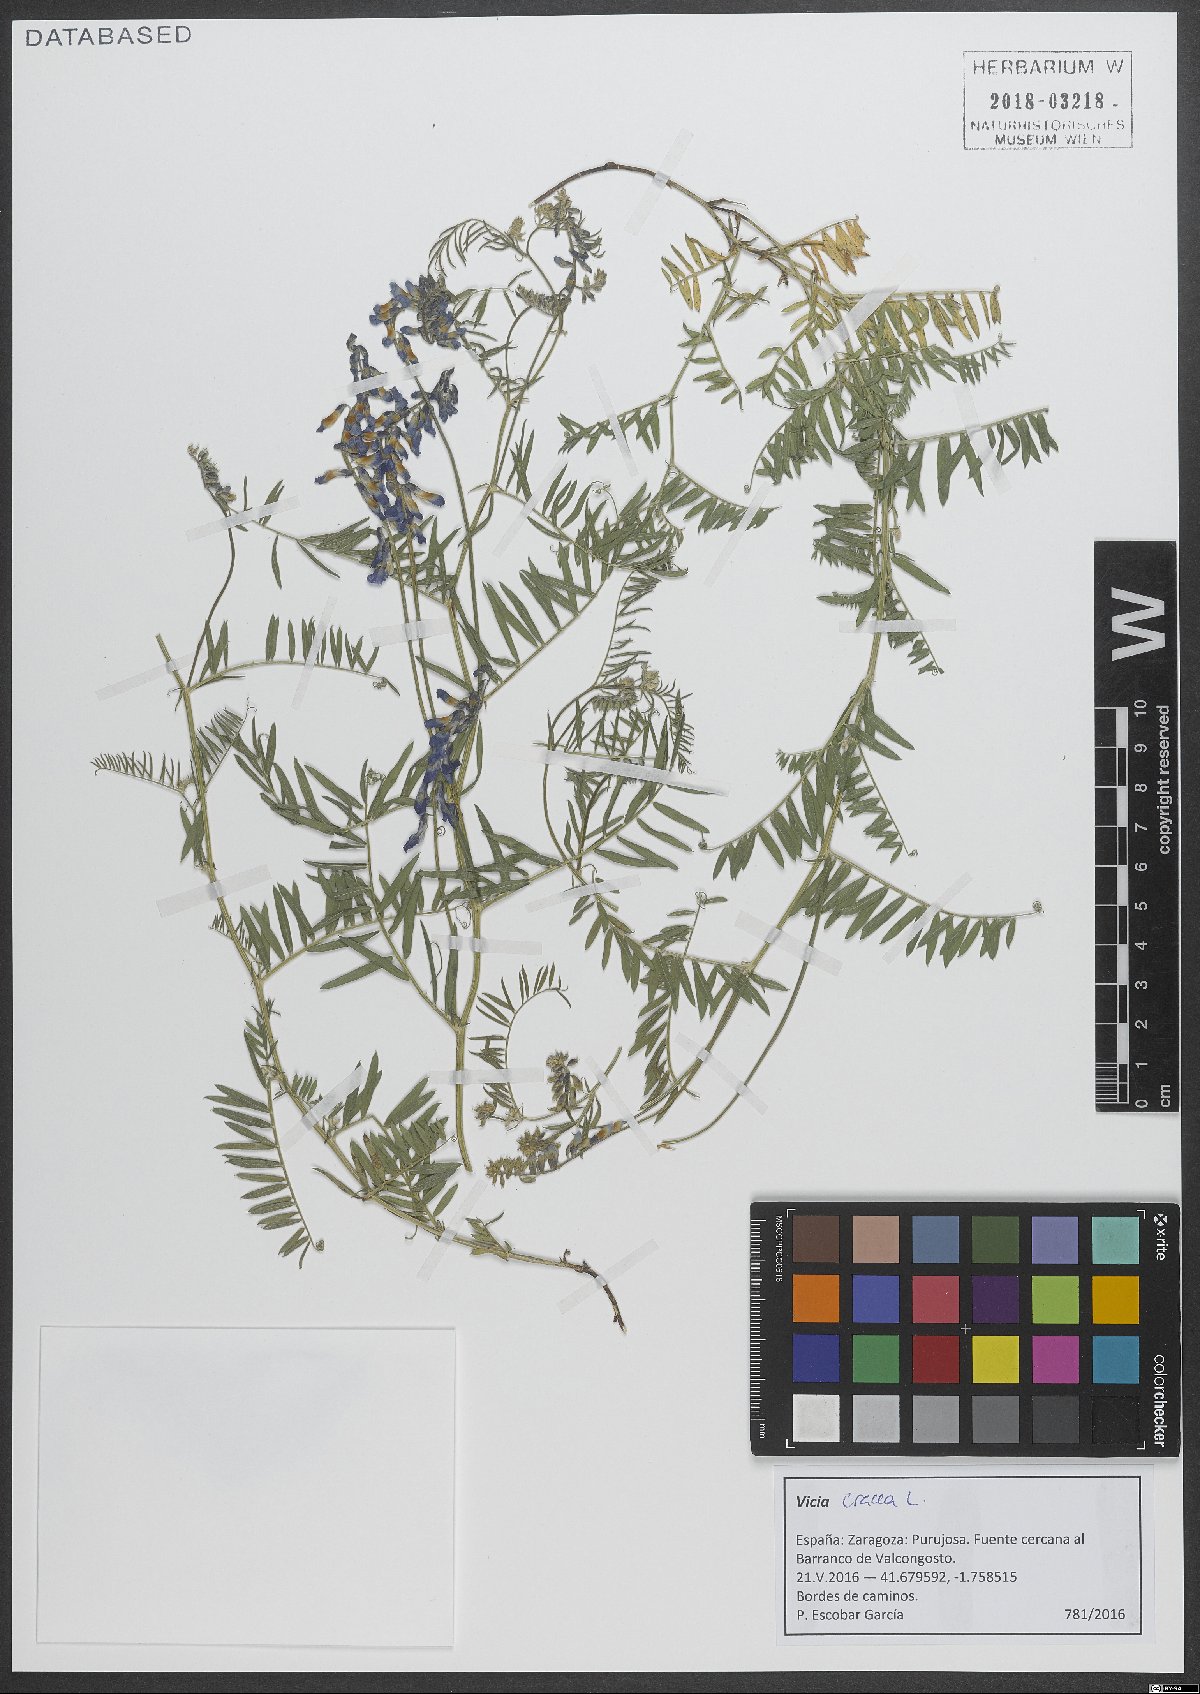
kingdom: Plantae
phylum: Tracheophyta
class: Magnoliopsida
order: Fabales
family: Fabaceae
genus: Vicia
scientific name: Vicia cracca
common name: Bird vetch
